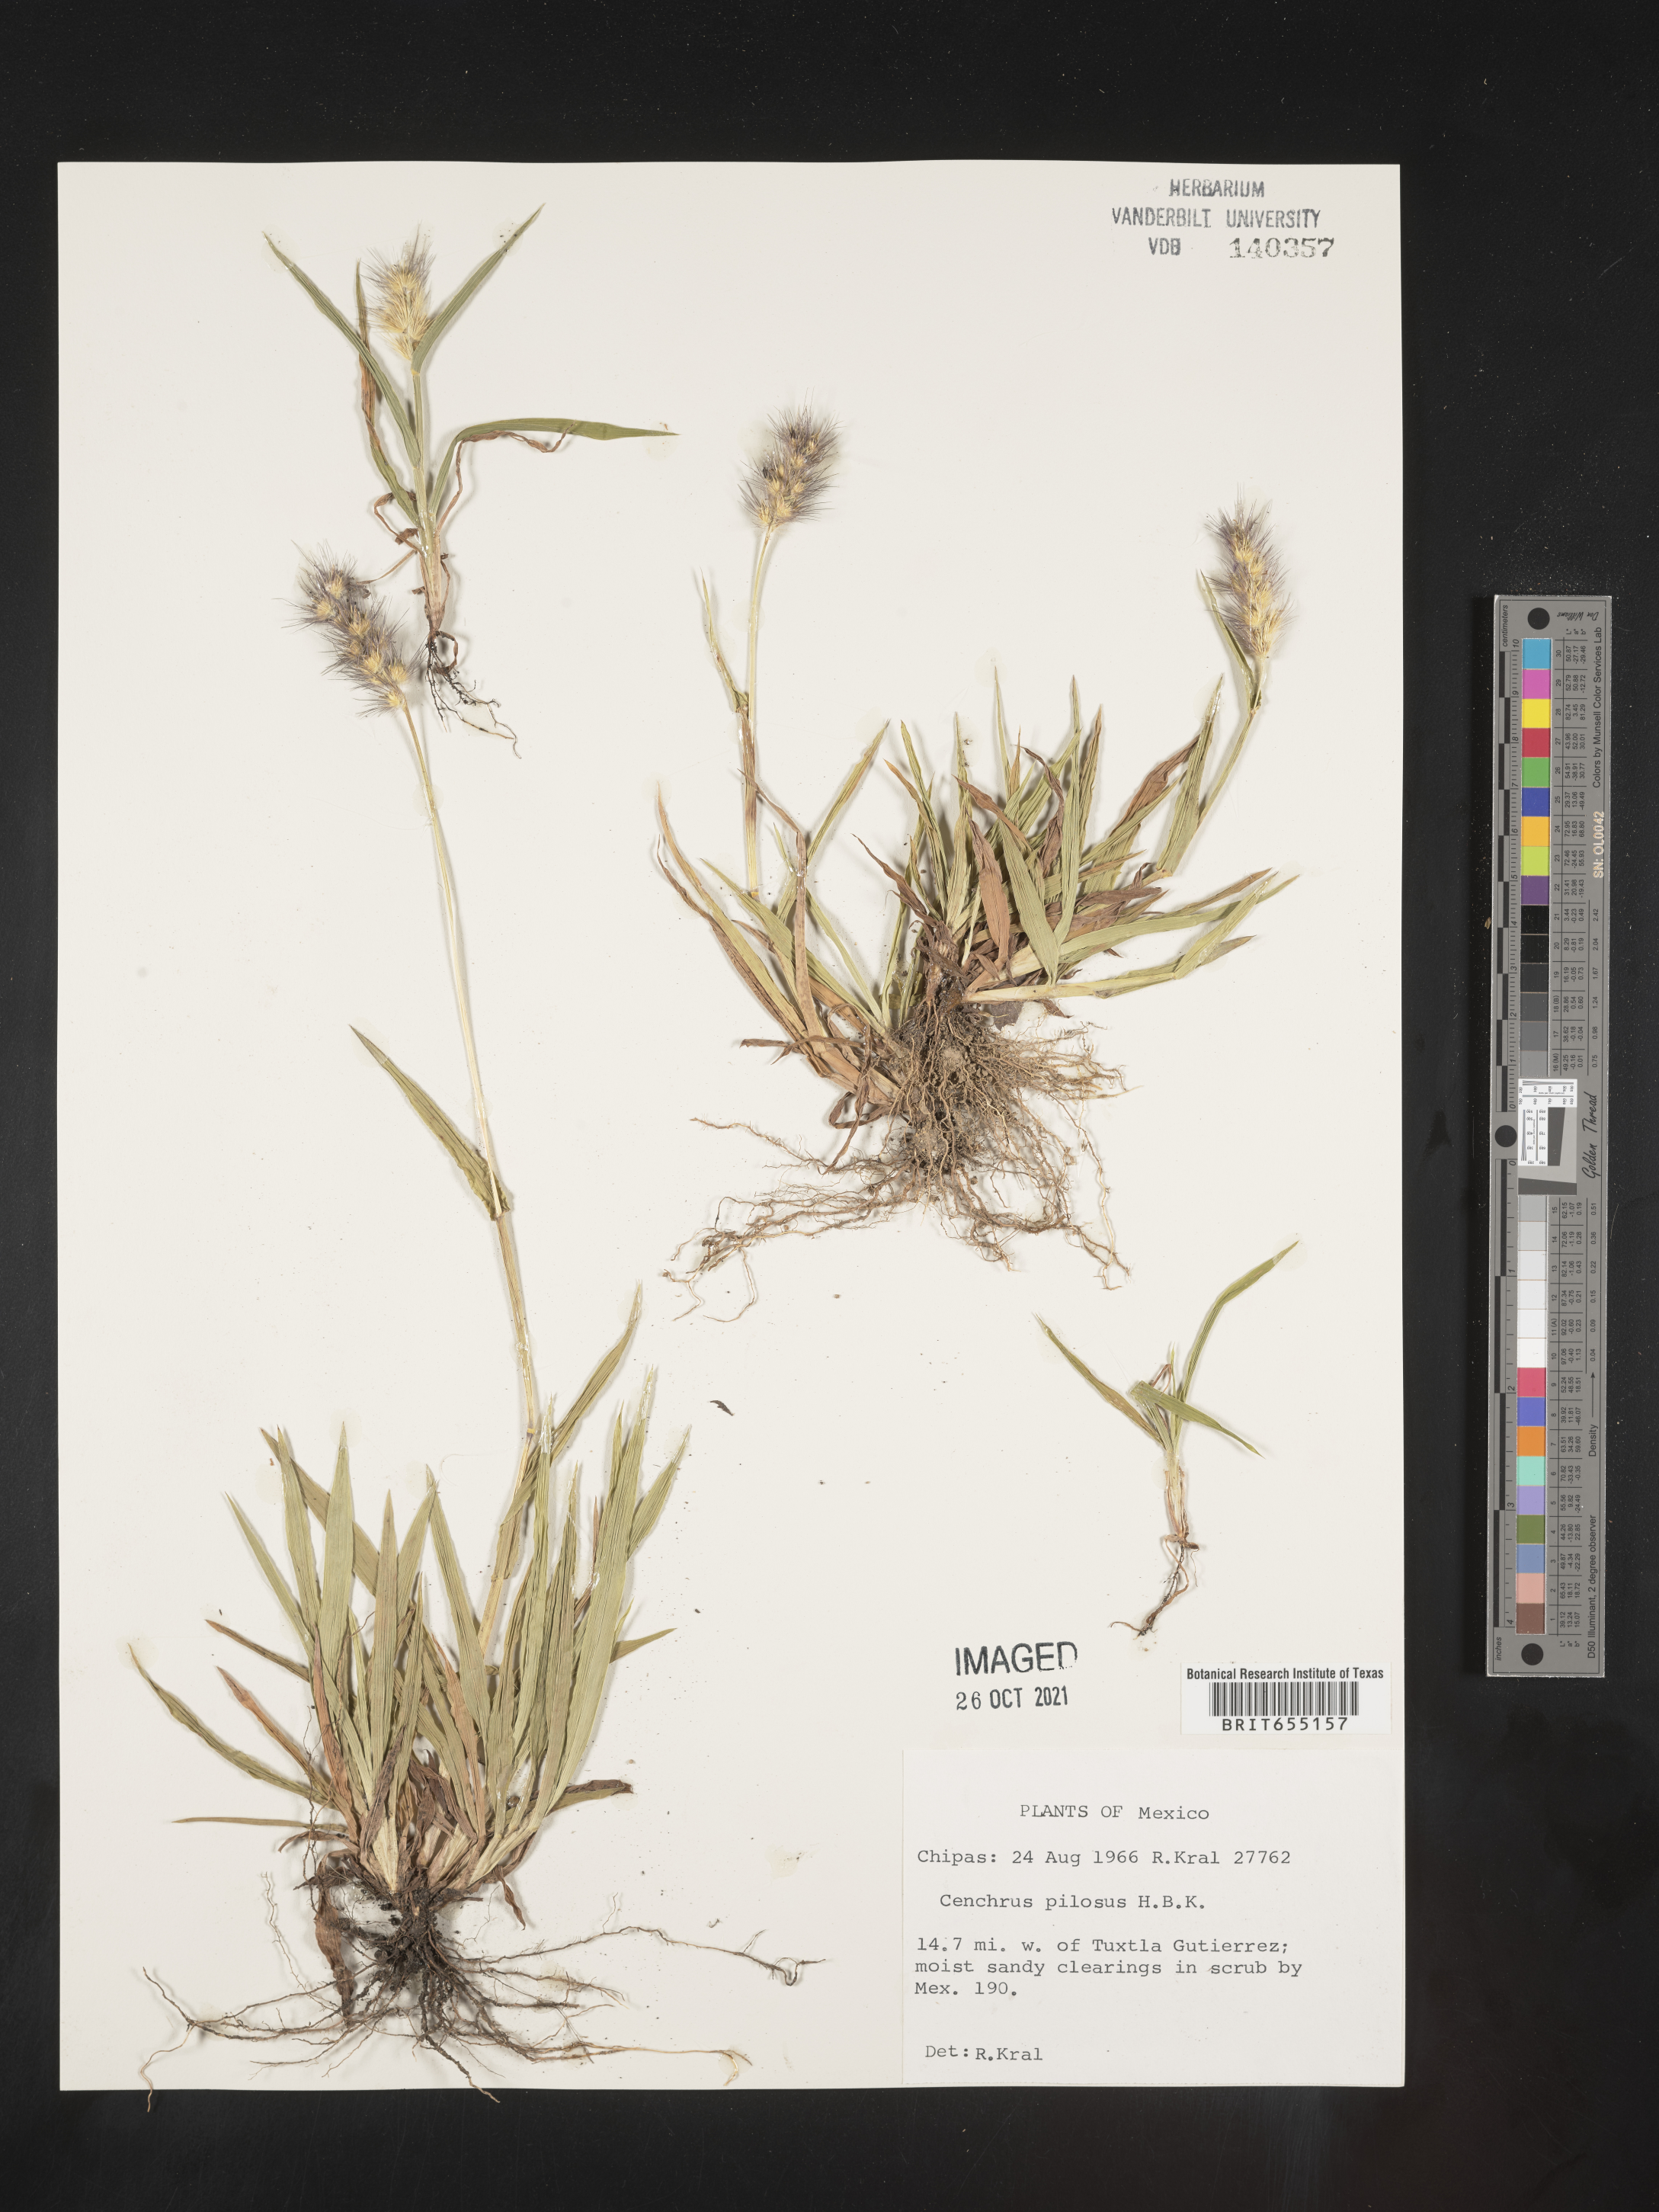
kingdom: Plantae
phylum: Tracheophyta
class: Liliopsida
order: Poales
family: Poaceae
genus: Cenchrus
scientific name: Cenchrus
